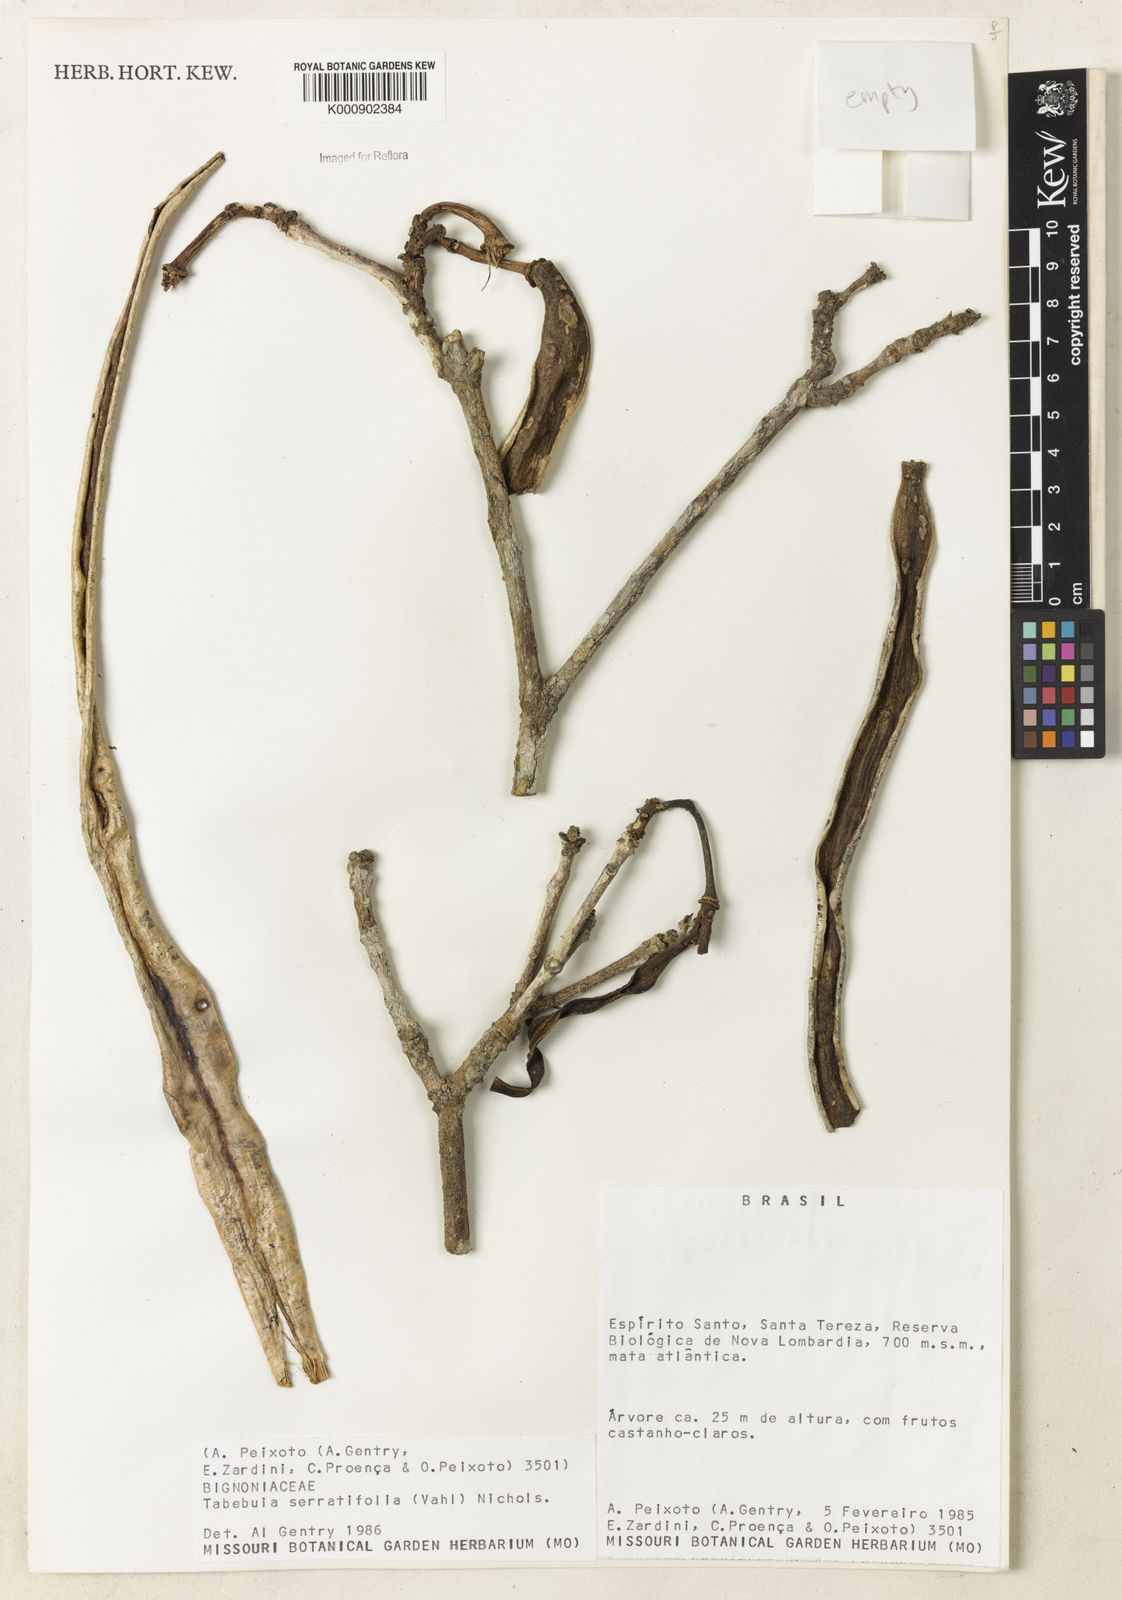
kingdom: Plantae
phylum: Tracheophyta
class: Magnoliopsida
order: Lamiales
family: Bignoniaceae
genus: Handroanthus
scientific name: Handroanthus serratifolius
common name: Yellow ipe
